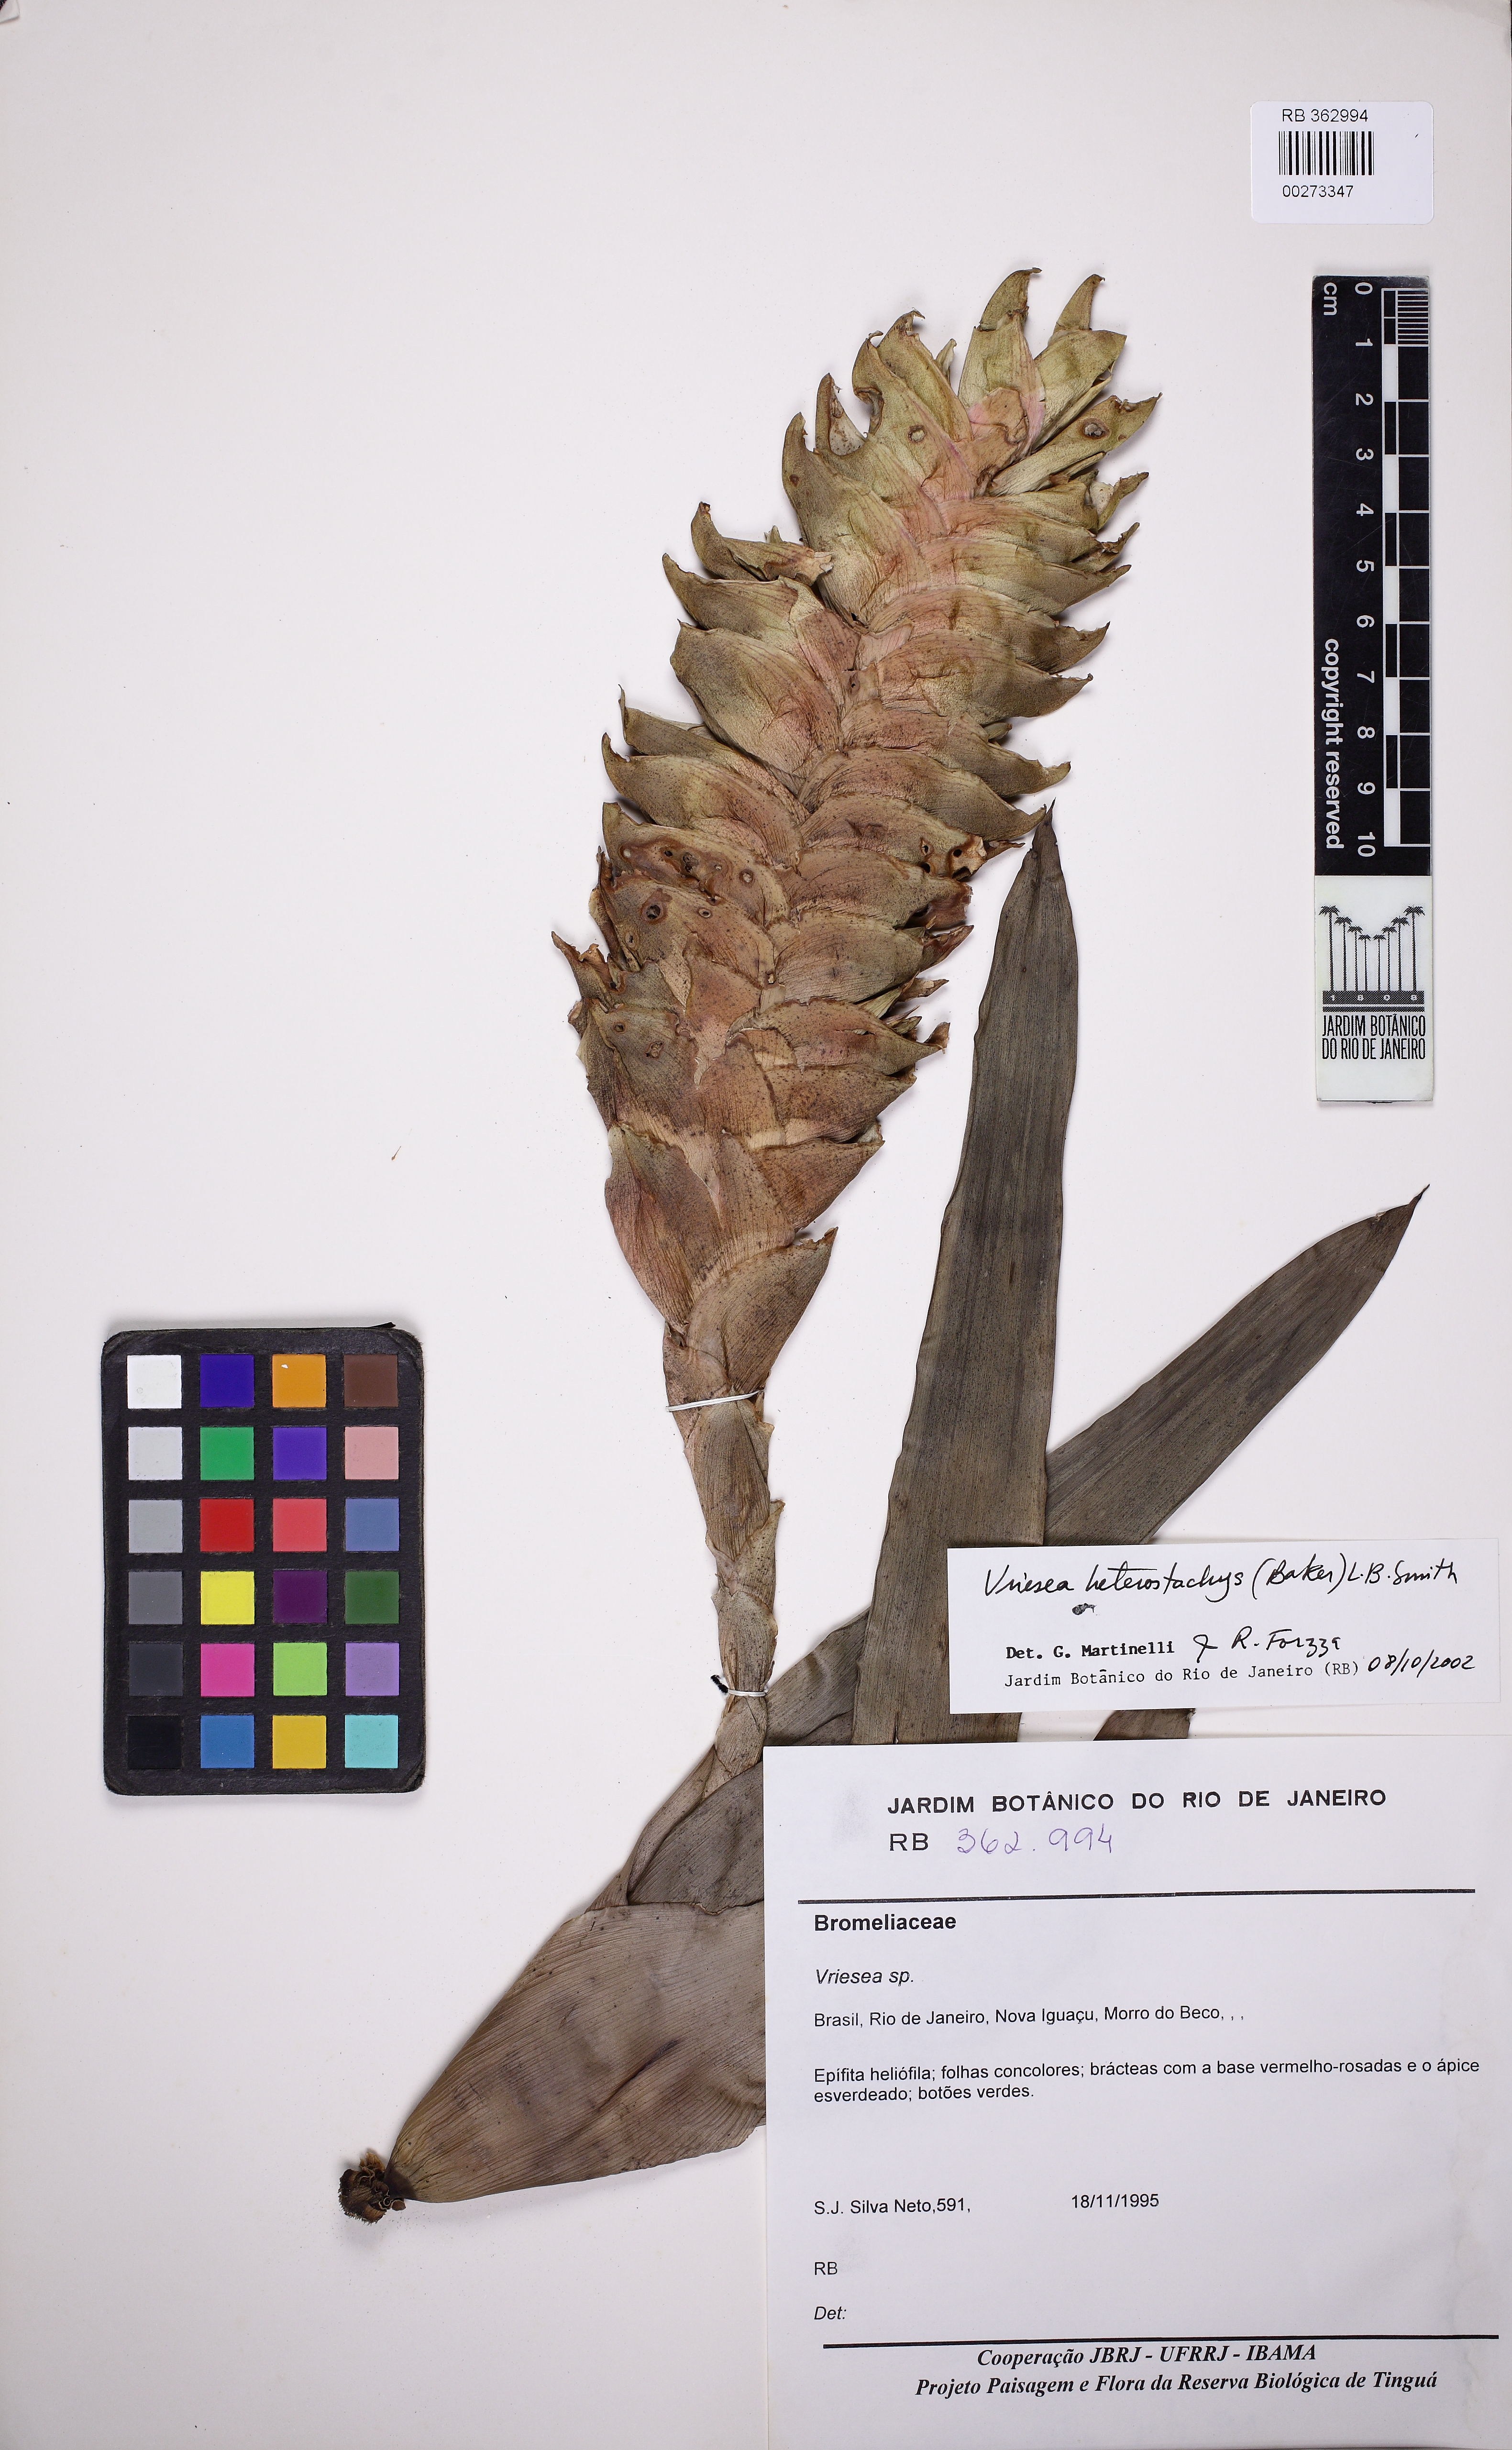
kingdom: Plantae
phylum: Tracheophyta
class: Liliopsida
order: Poales
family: Bromeliaceae
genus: Vriesea
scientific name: Vriesea heterostachys
